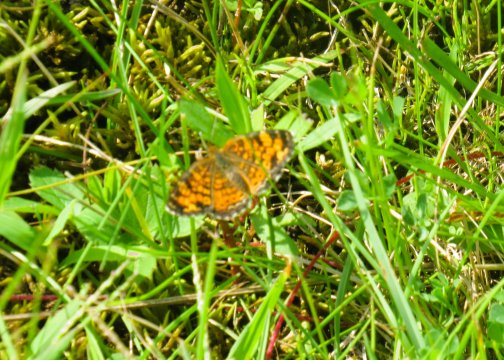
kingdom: Animalia
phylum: Arthropoda
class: Insecta
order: Lepidoptera
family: Nymphalidae
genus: Phyciodes
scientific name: Phyciodes tharos
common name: Pearl Crescent
